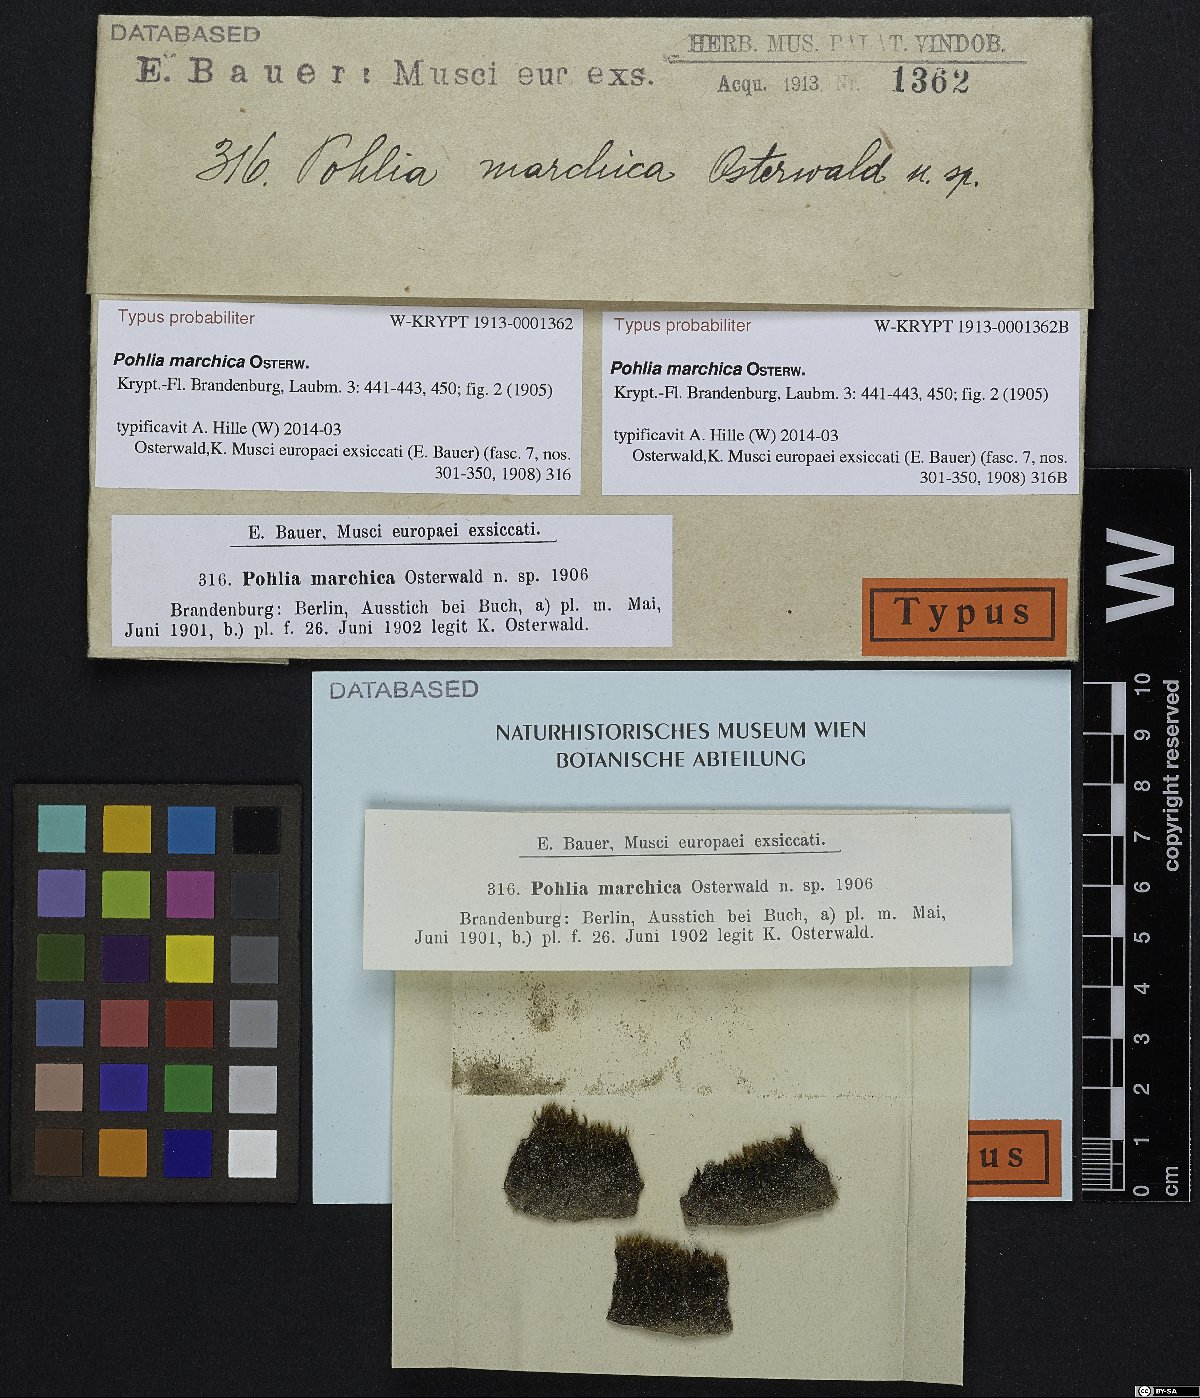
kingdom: Plantae
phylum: Bryophyta
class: Bryopsida
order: Bryales
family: Mniaceae
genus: Pohlia
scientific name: Pohlia marchica
